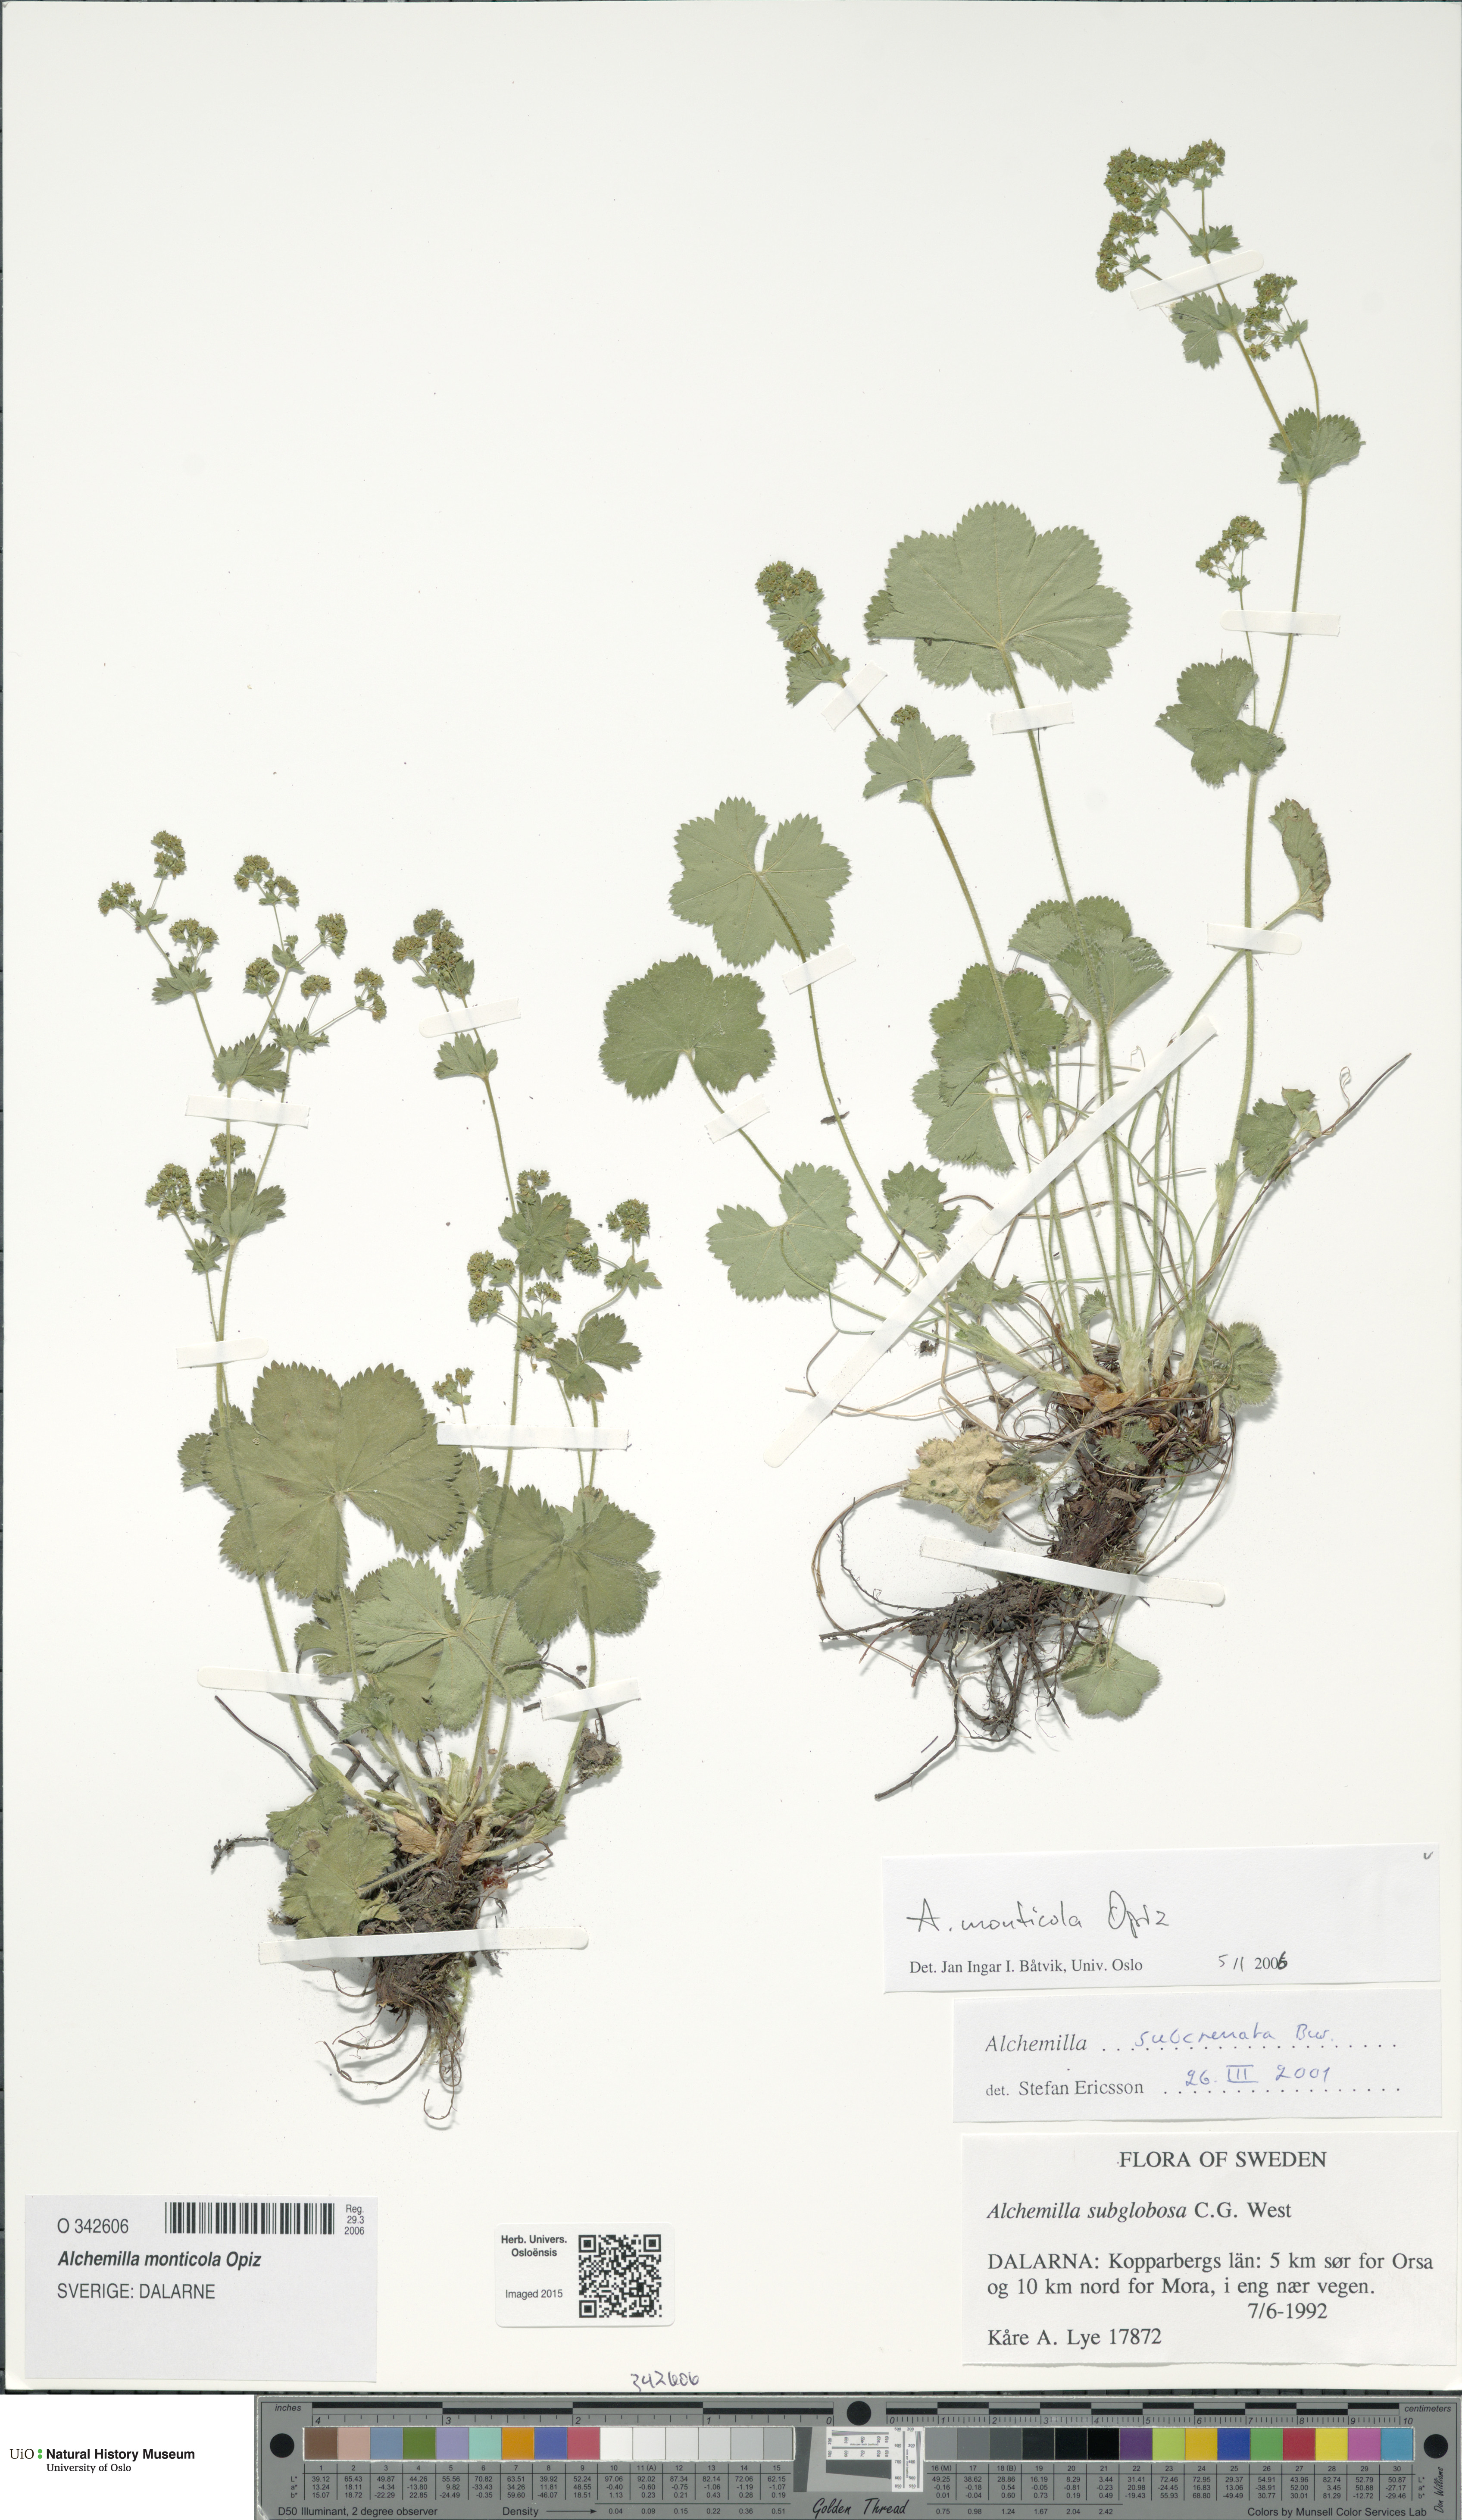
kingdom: Plantae
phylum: Tracheophyta
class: Magnoliopsida
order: Rosales
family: Rosaceae
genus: Alchemilla
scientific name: Alchemilla monticola
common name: Hairy lady's mantle
